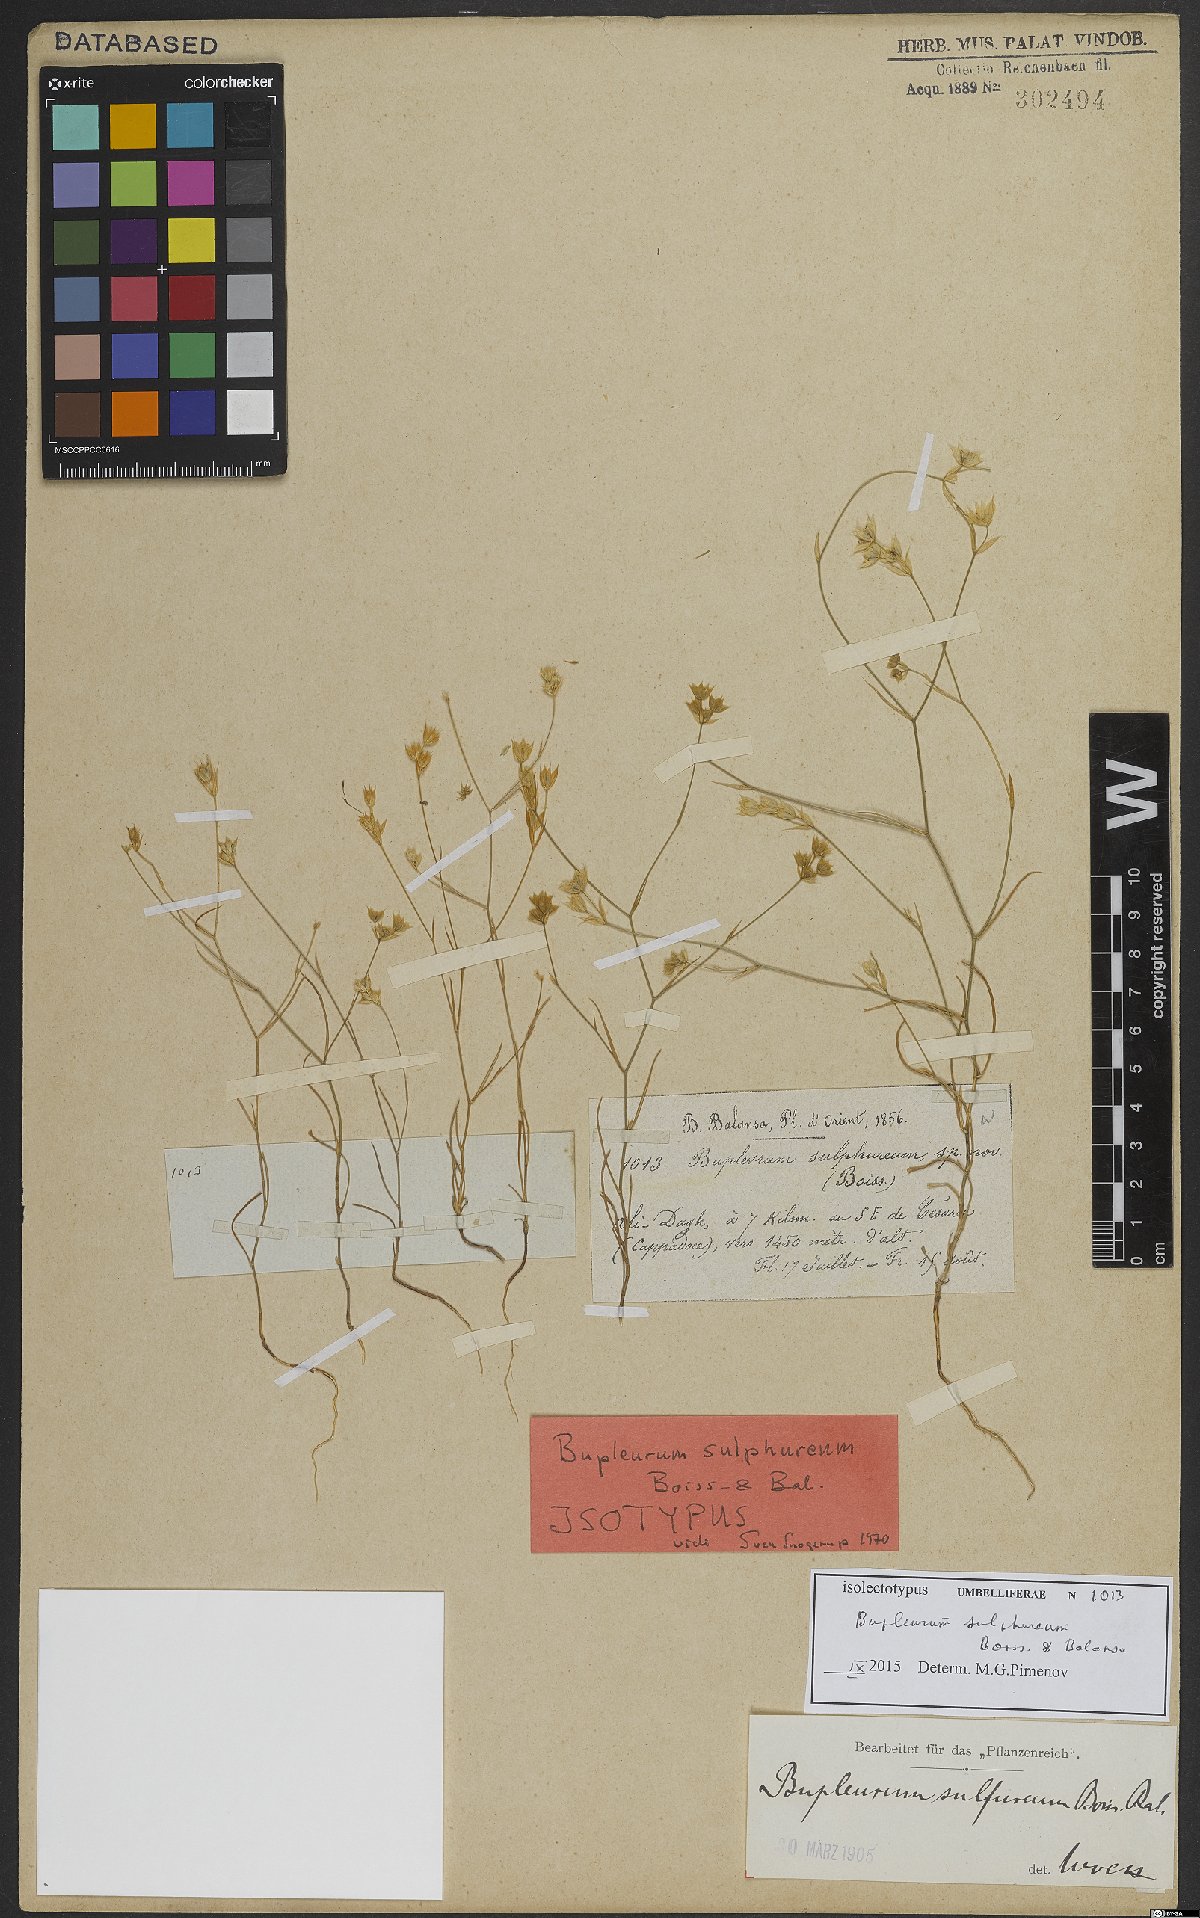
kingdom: Plantae
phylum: Tracheophyta
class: Magnoliopsida
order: Apiales
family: Apiaceae
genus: Bupleurum
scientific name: Bupleurum sulphureum
